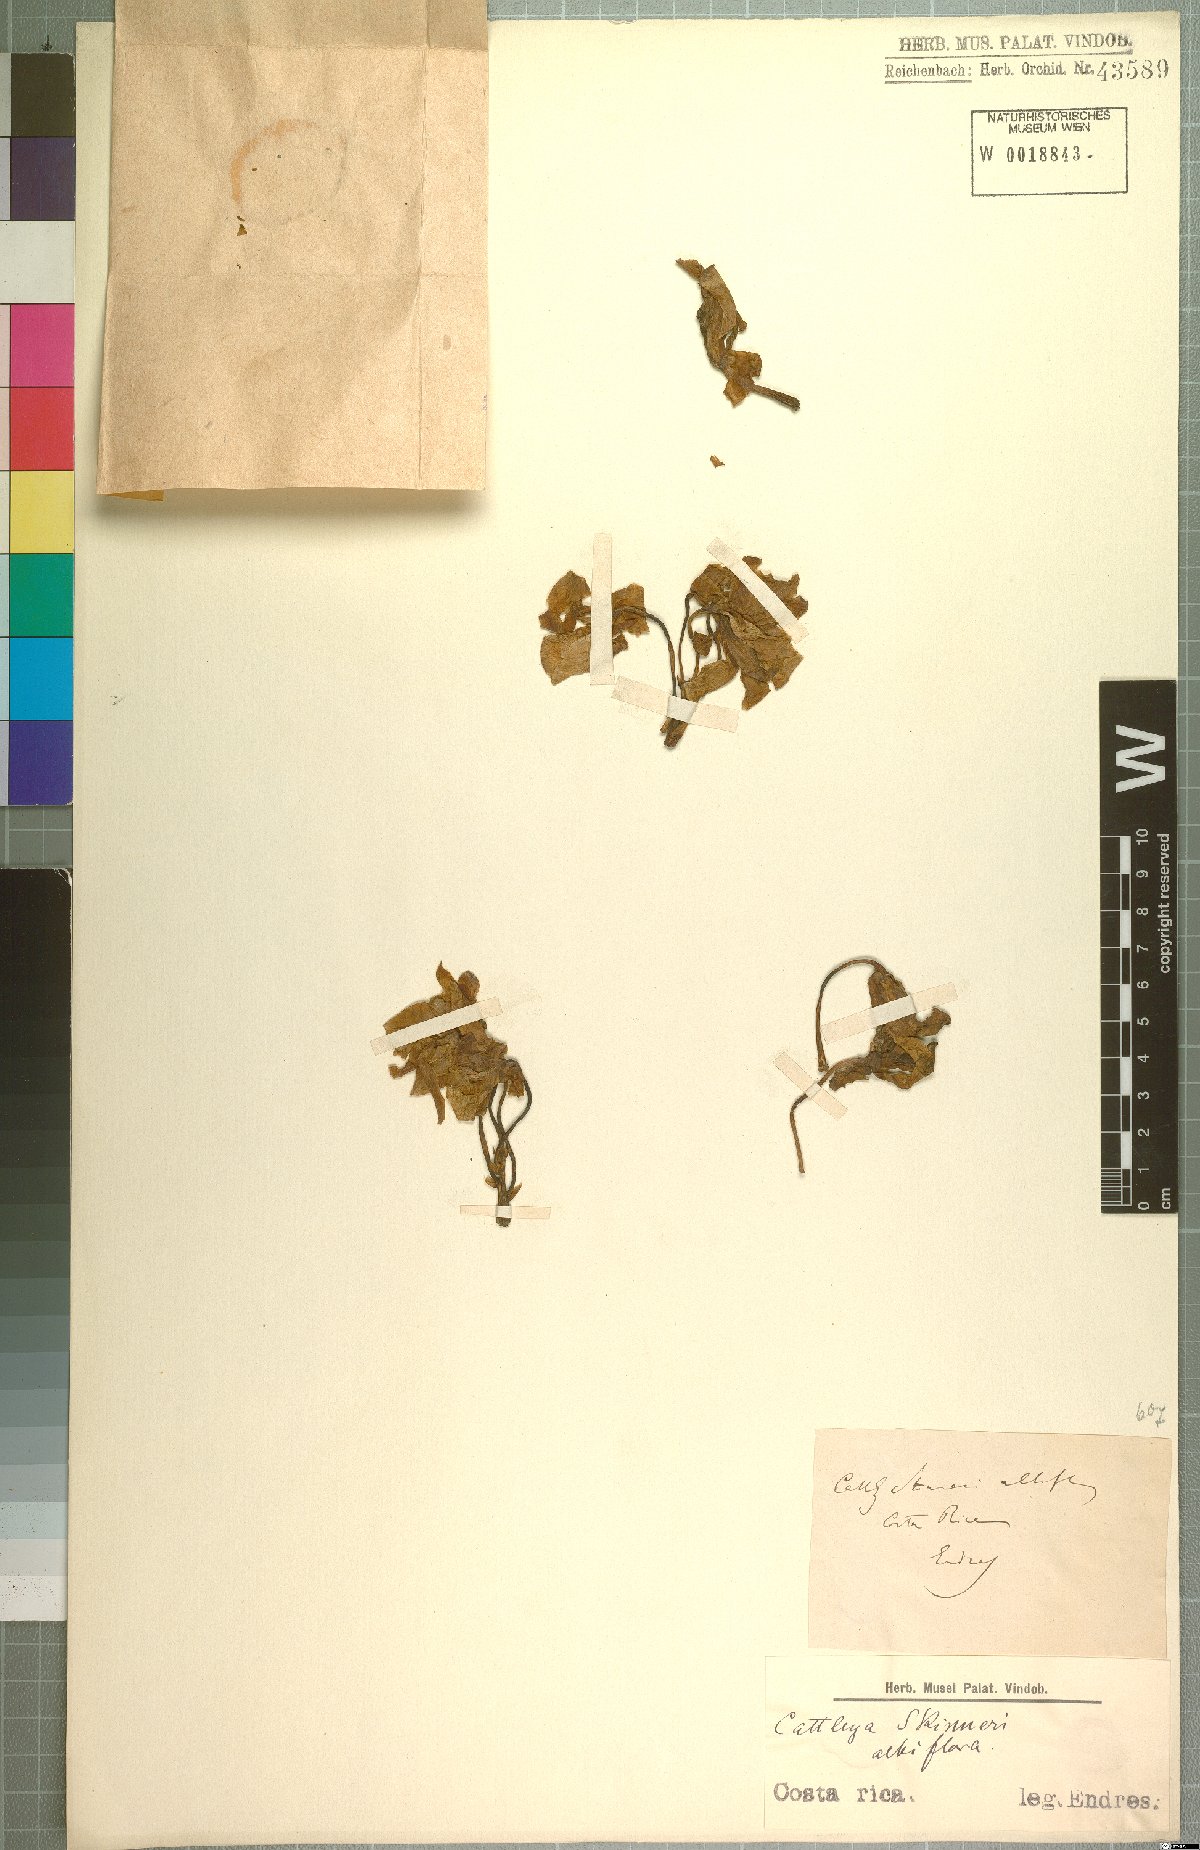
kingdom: Plantae
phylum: Tracheophyta
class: Liliopsida
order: Asparagales
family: Orchidaceae
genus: Guarianthe
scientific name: Guarianthe skinneri
